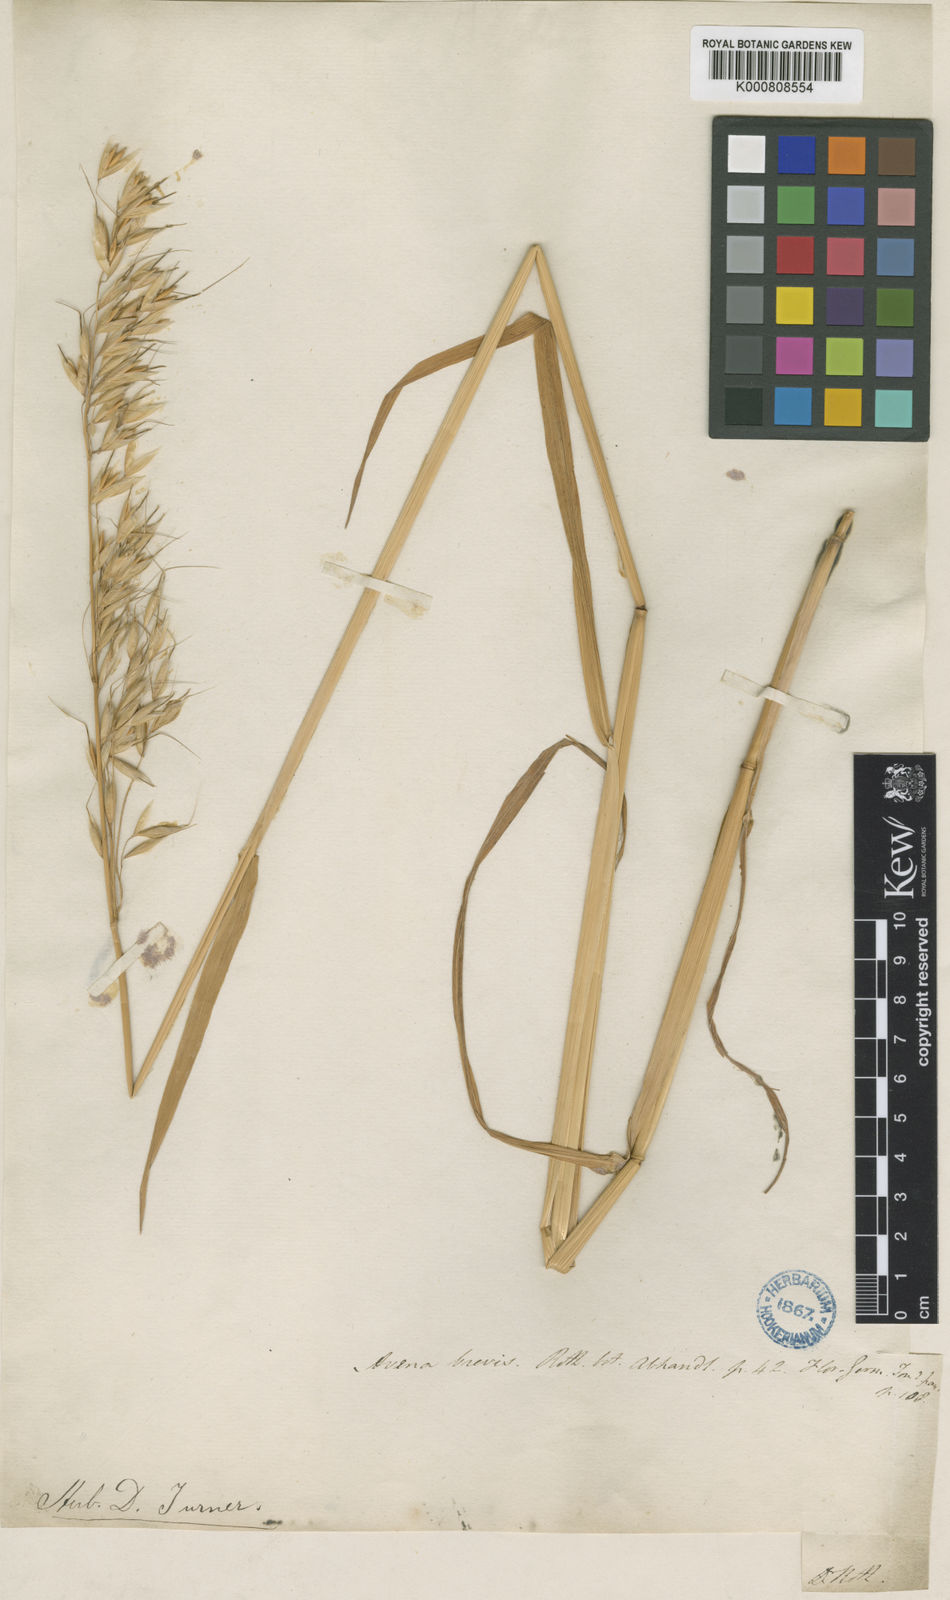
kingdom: Plantae
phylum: Tracheophyta
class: Liliopsida
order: Poales
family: Poaceae
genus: Avena
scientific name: Avena brevis
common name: Short oat
